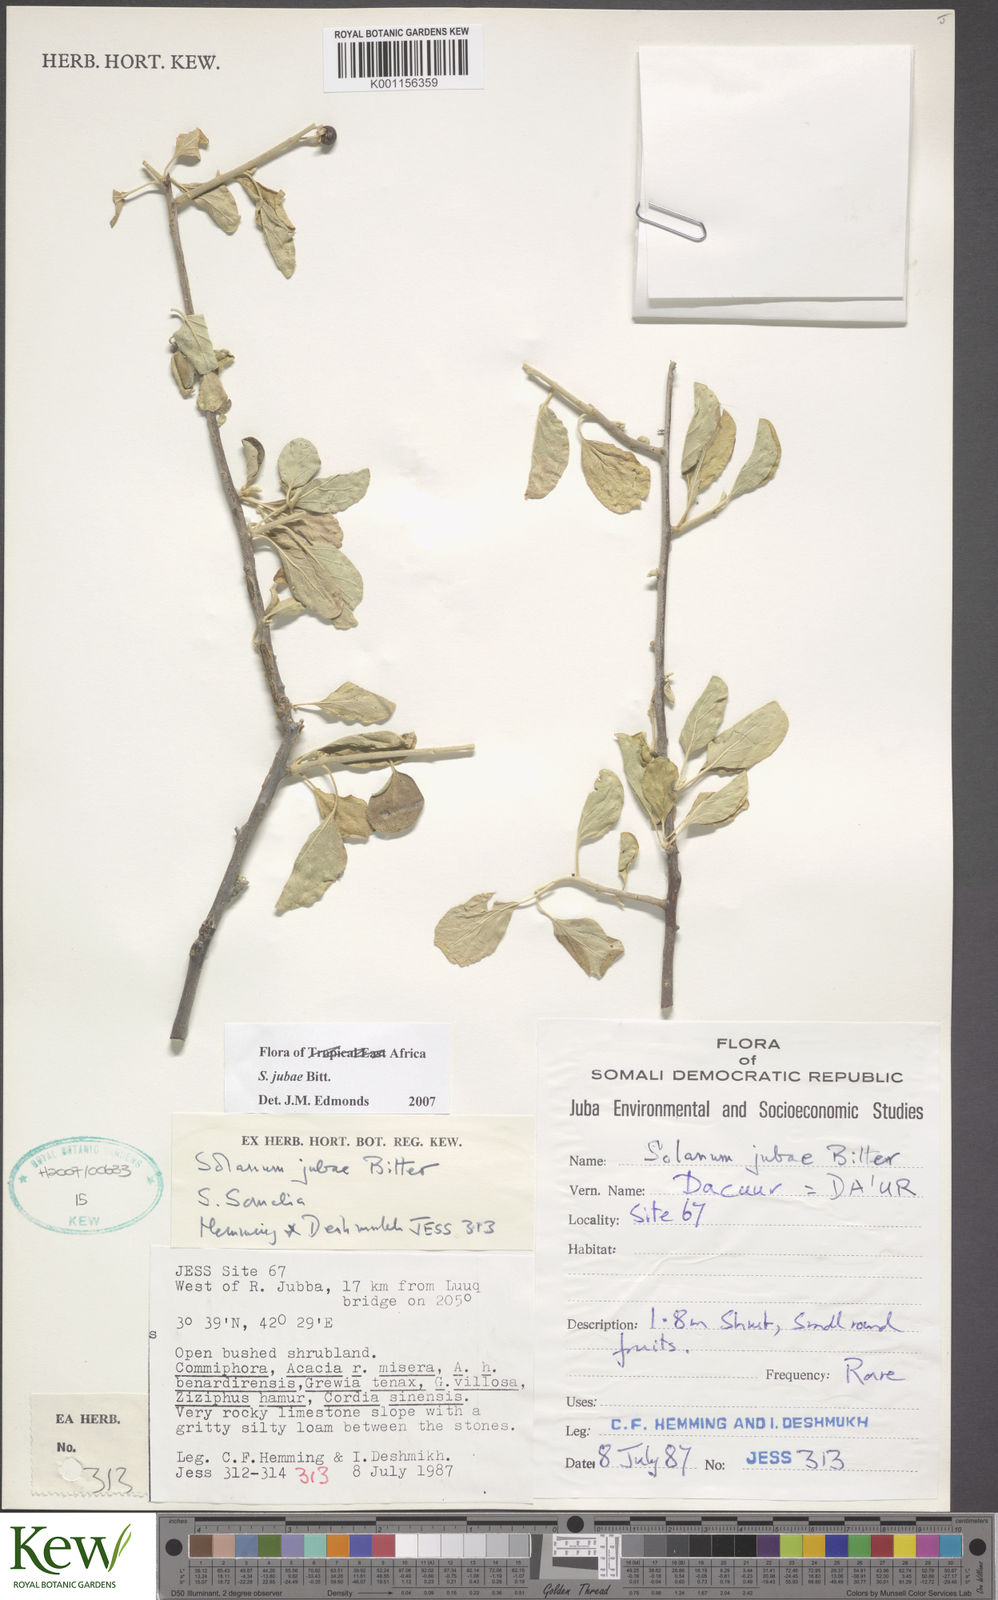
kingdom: Plantae
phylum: Tracheophyta
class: Magnoliopsida
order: Solanales
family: Solanaceae
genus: Solanum
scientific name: Solanum jubae
